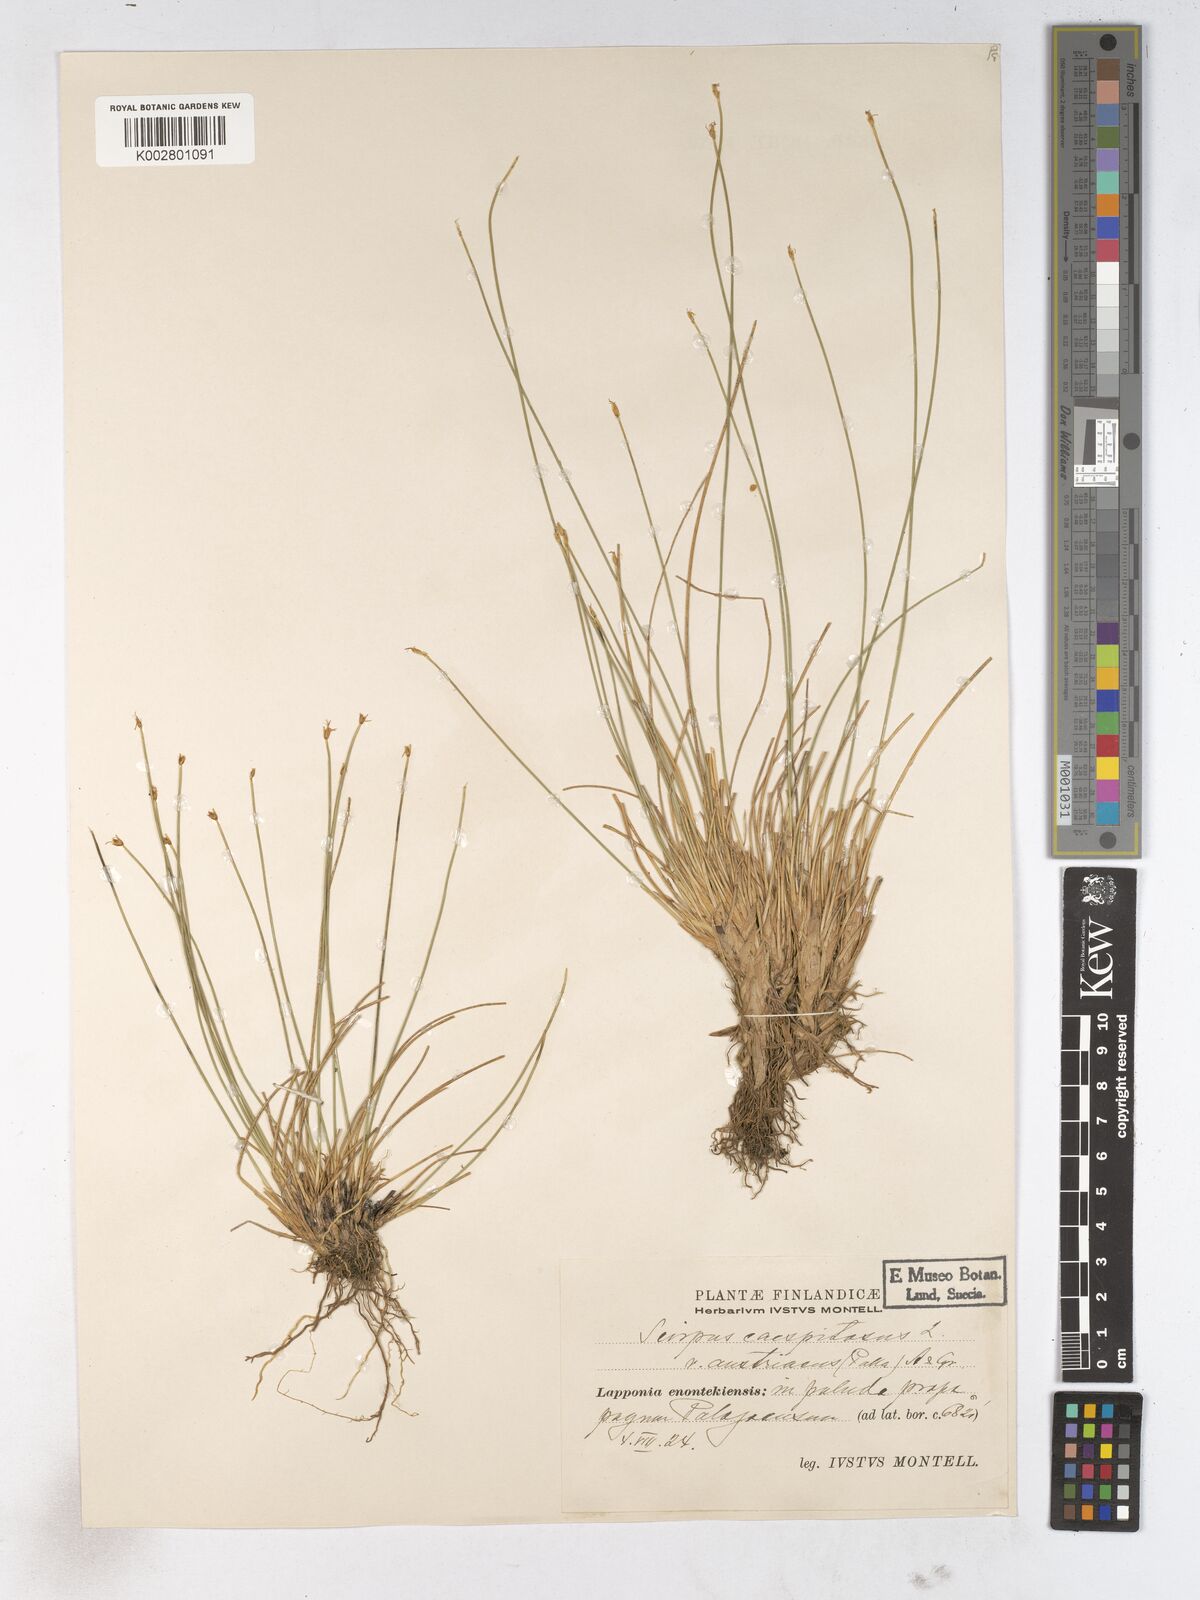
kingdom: Plantae
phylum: Tracheophyta
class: Liliopsida
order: Poales
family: Cyperaceae
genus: Trichophorum
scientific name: Trichophorum cespitosum
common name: Cespitose bulrush
